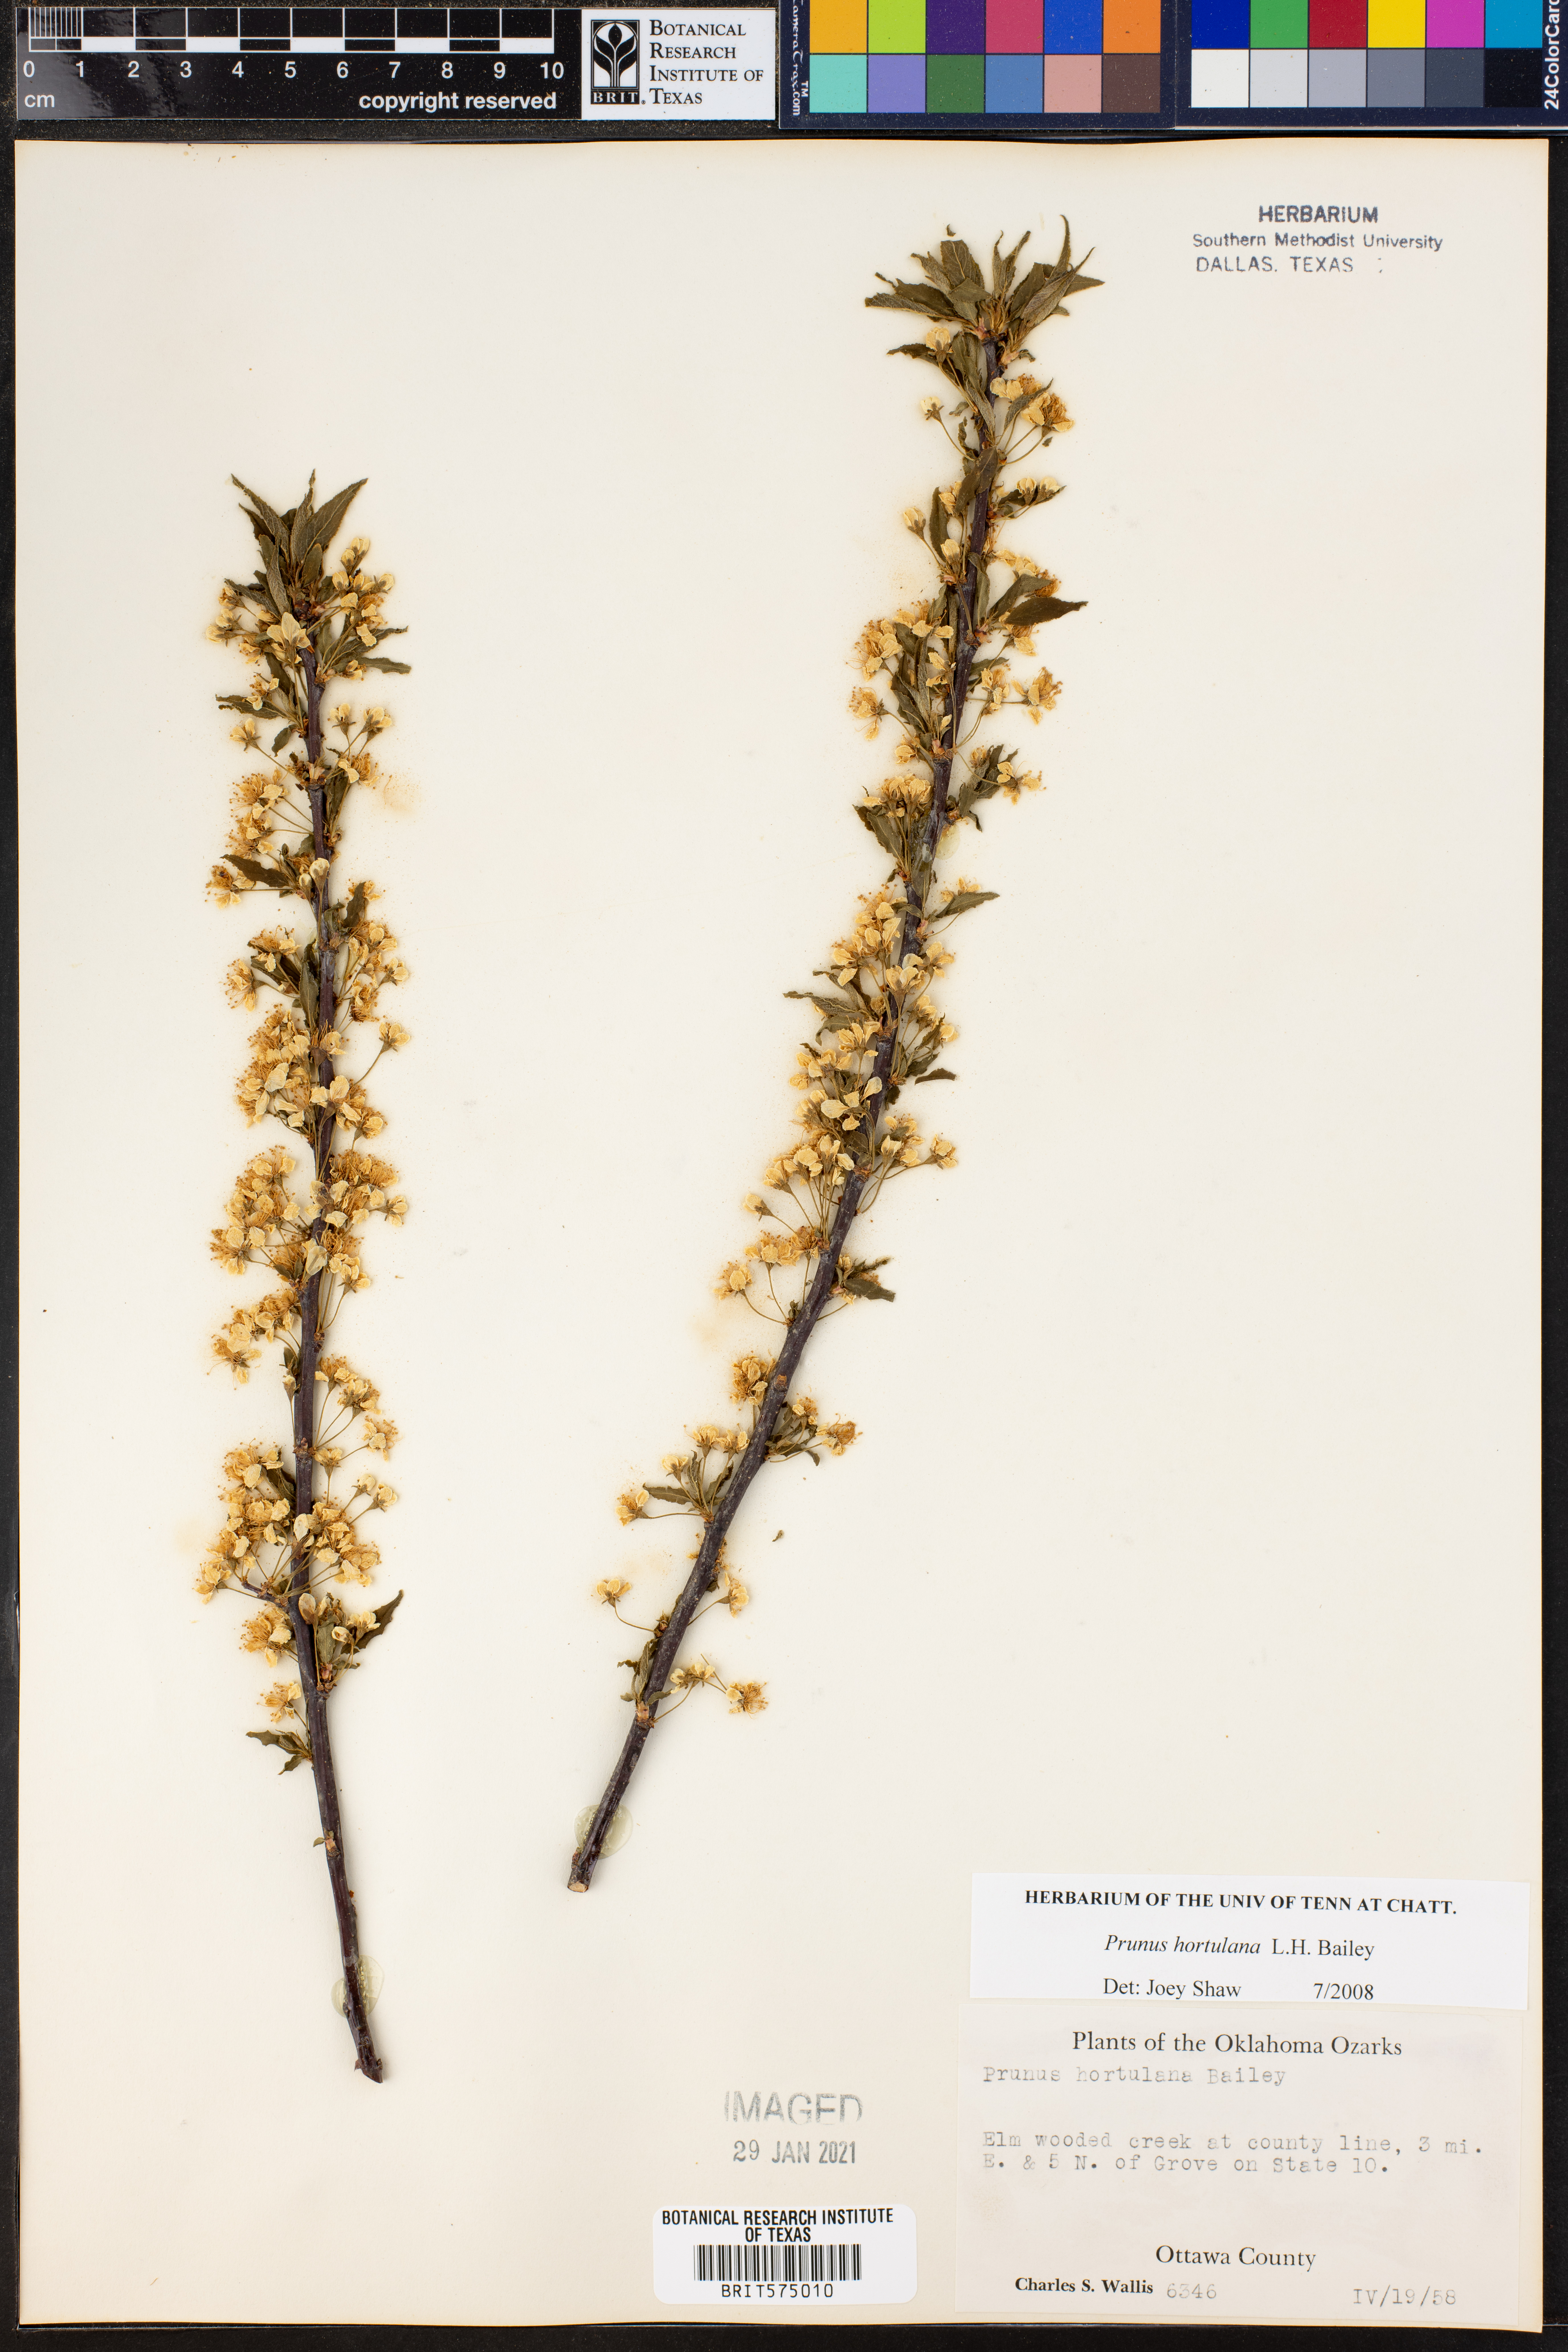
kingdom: Plantae
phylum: Tracheophyta
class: Magnoliopsida
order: Rosales
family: Rosaceae
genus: Prunus
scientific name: Prunus hortulana
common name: Hortulan plum
